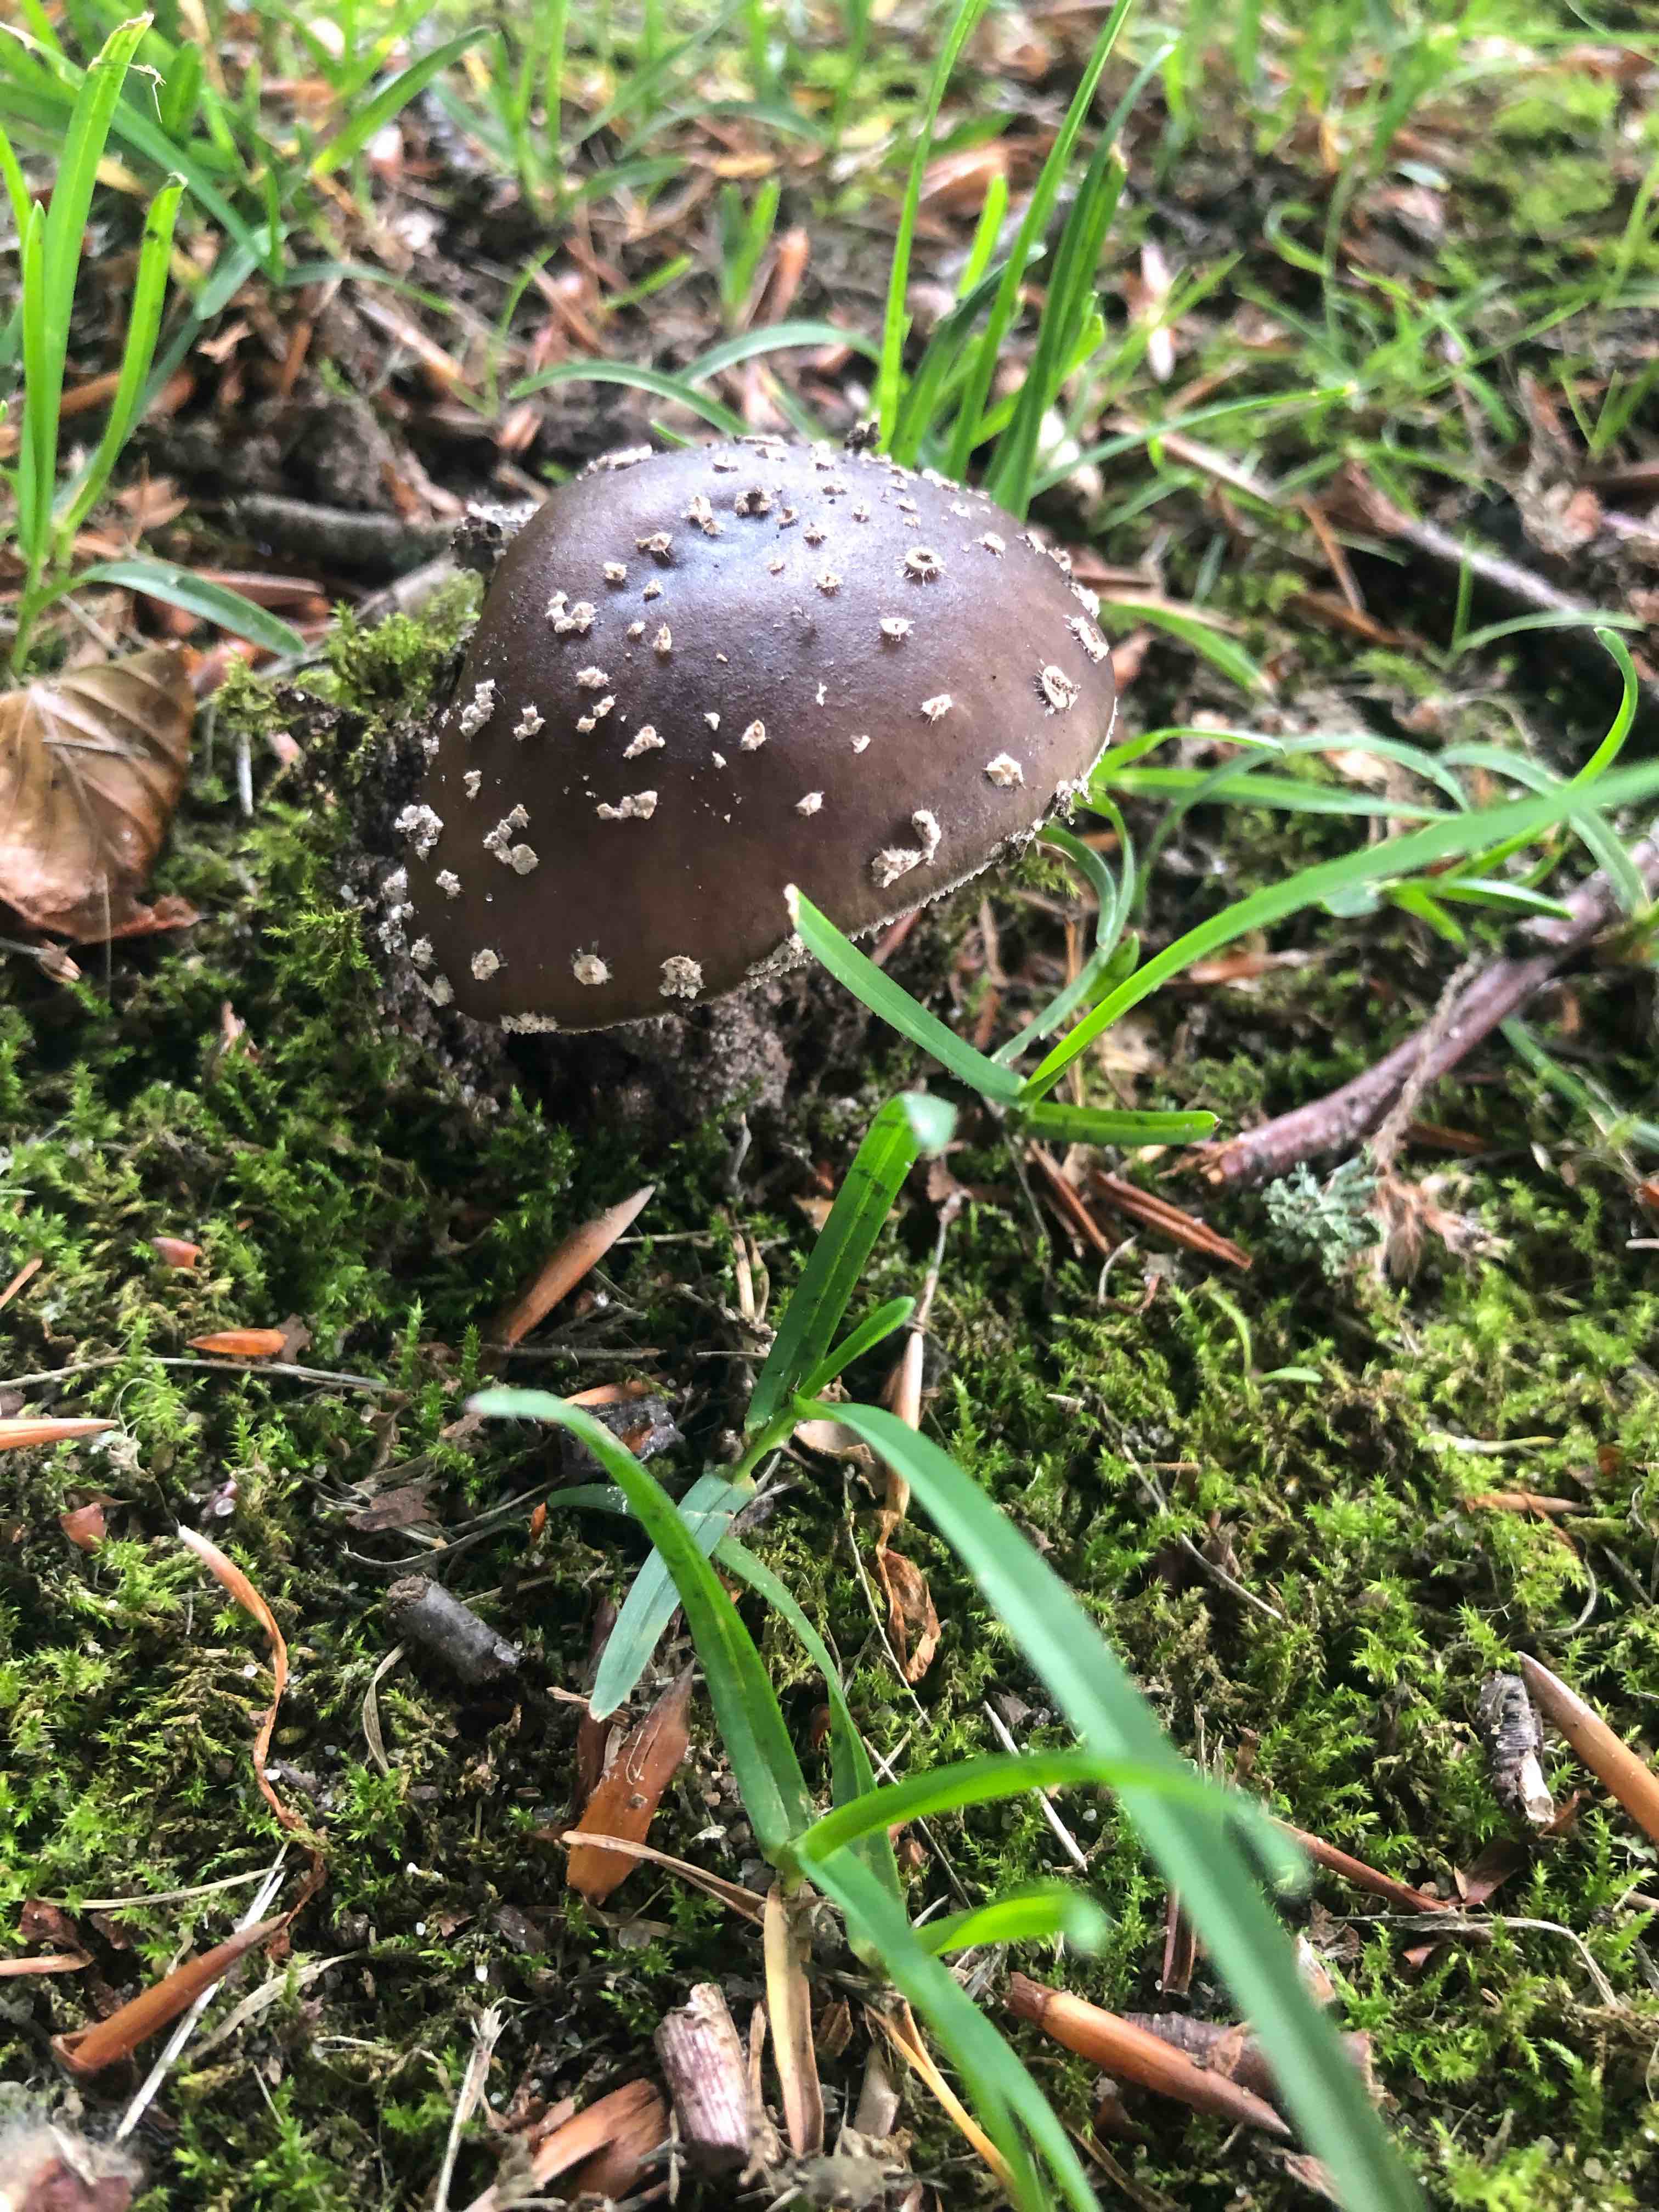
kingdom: Fungi
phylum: Basidiomycota
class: Agaricomycetes
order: Agaricales
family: Amanitaceae
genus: Amanita
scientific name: Amanita
